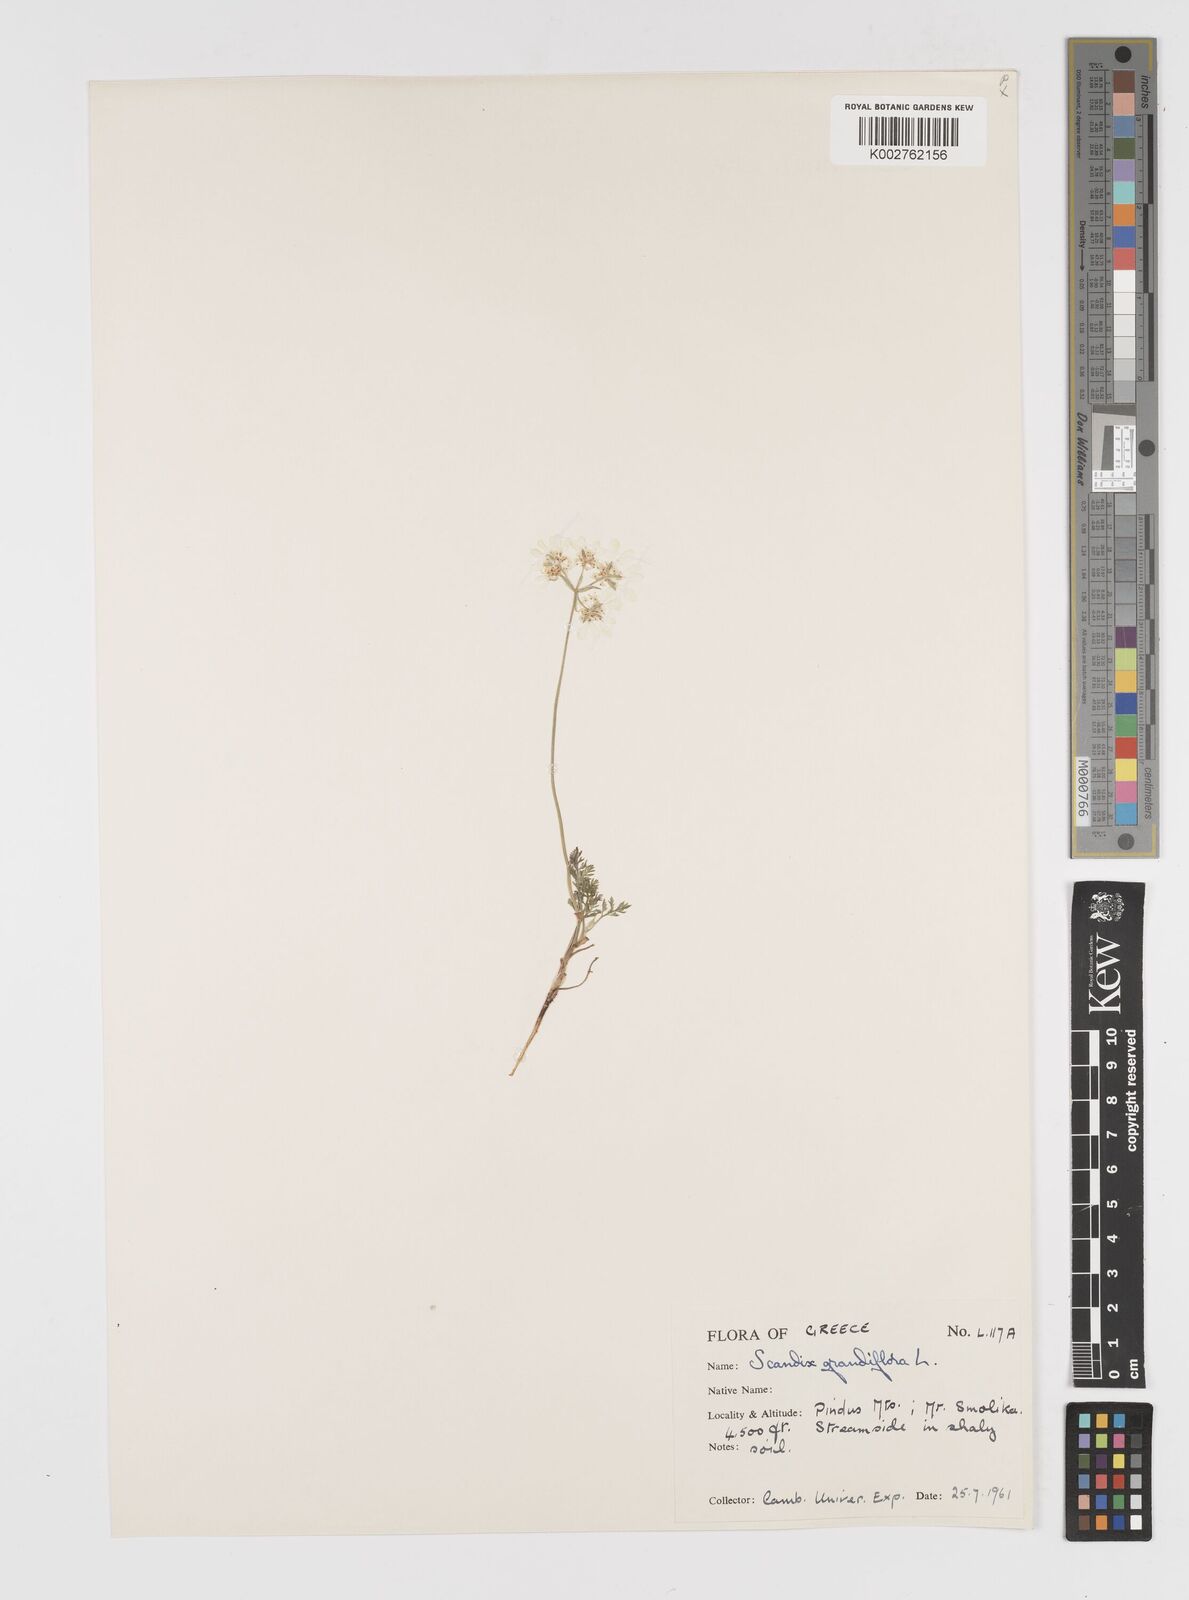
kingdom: Plantae
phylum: Tracheophyta
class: Magnoliopsida
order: Apiales
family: Apiaceae
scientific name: Apiaceae
